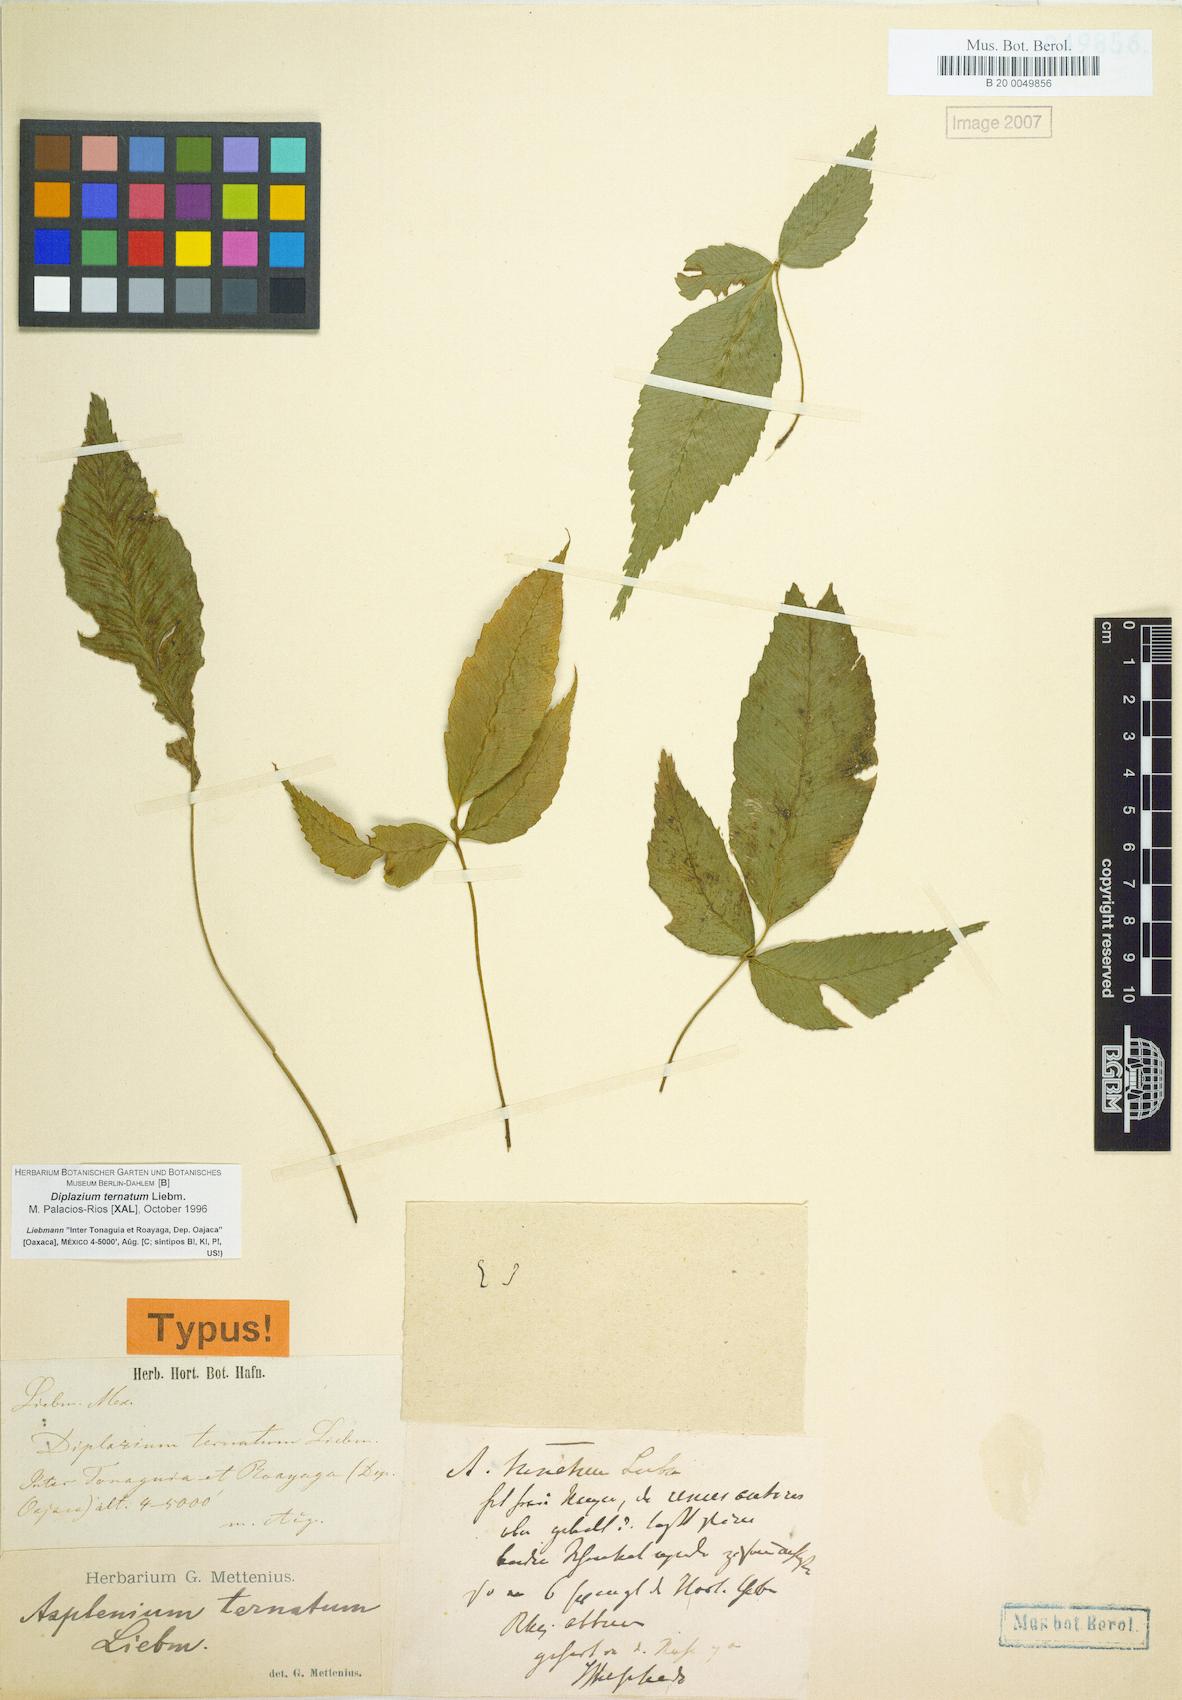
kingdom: Plantae
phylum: Tracheophyta
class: Polypodiopsida
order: Polypodiales
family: Athyriaceae
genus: Diplazium
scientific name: Diplazium ternatum
